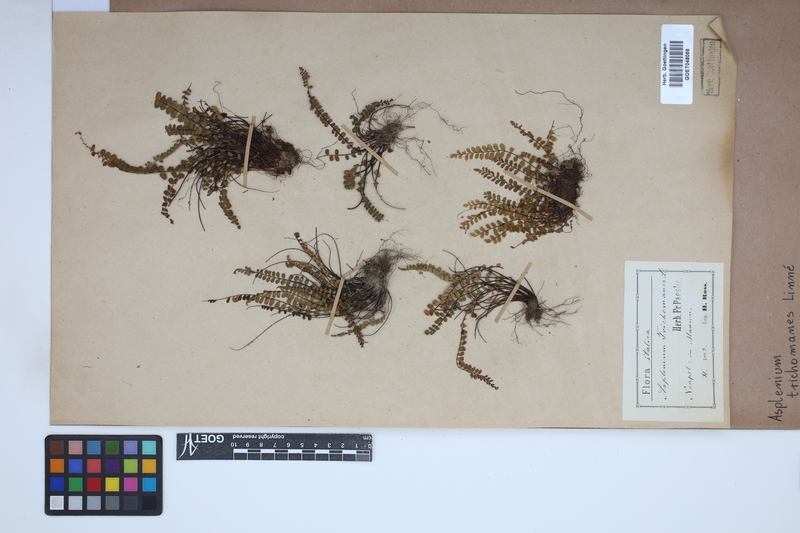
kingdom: Plantae
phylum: Tracheophyta
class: Polypodiopsida
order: Polypodiales
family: Aspleniaceae
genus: Asplenium
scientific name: Asplenium trichomanes
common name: Maidenhair spleenwort
